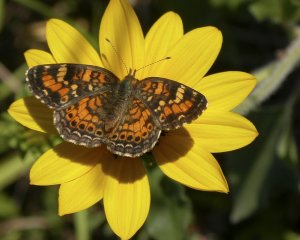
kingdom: Animalia
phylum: Arthropoda
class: Insecta
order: Lepidoptera
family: Nymphalidae
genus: Phyciodes
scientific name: Phyciodes phaon
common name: Phaon Crescent
